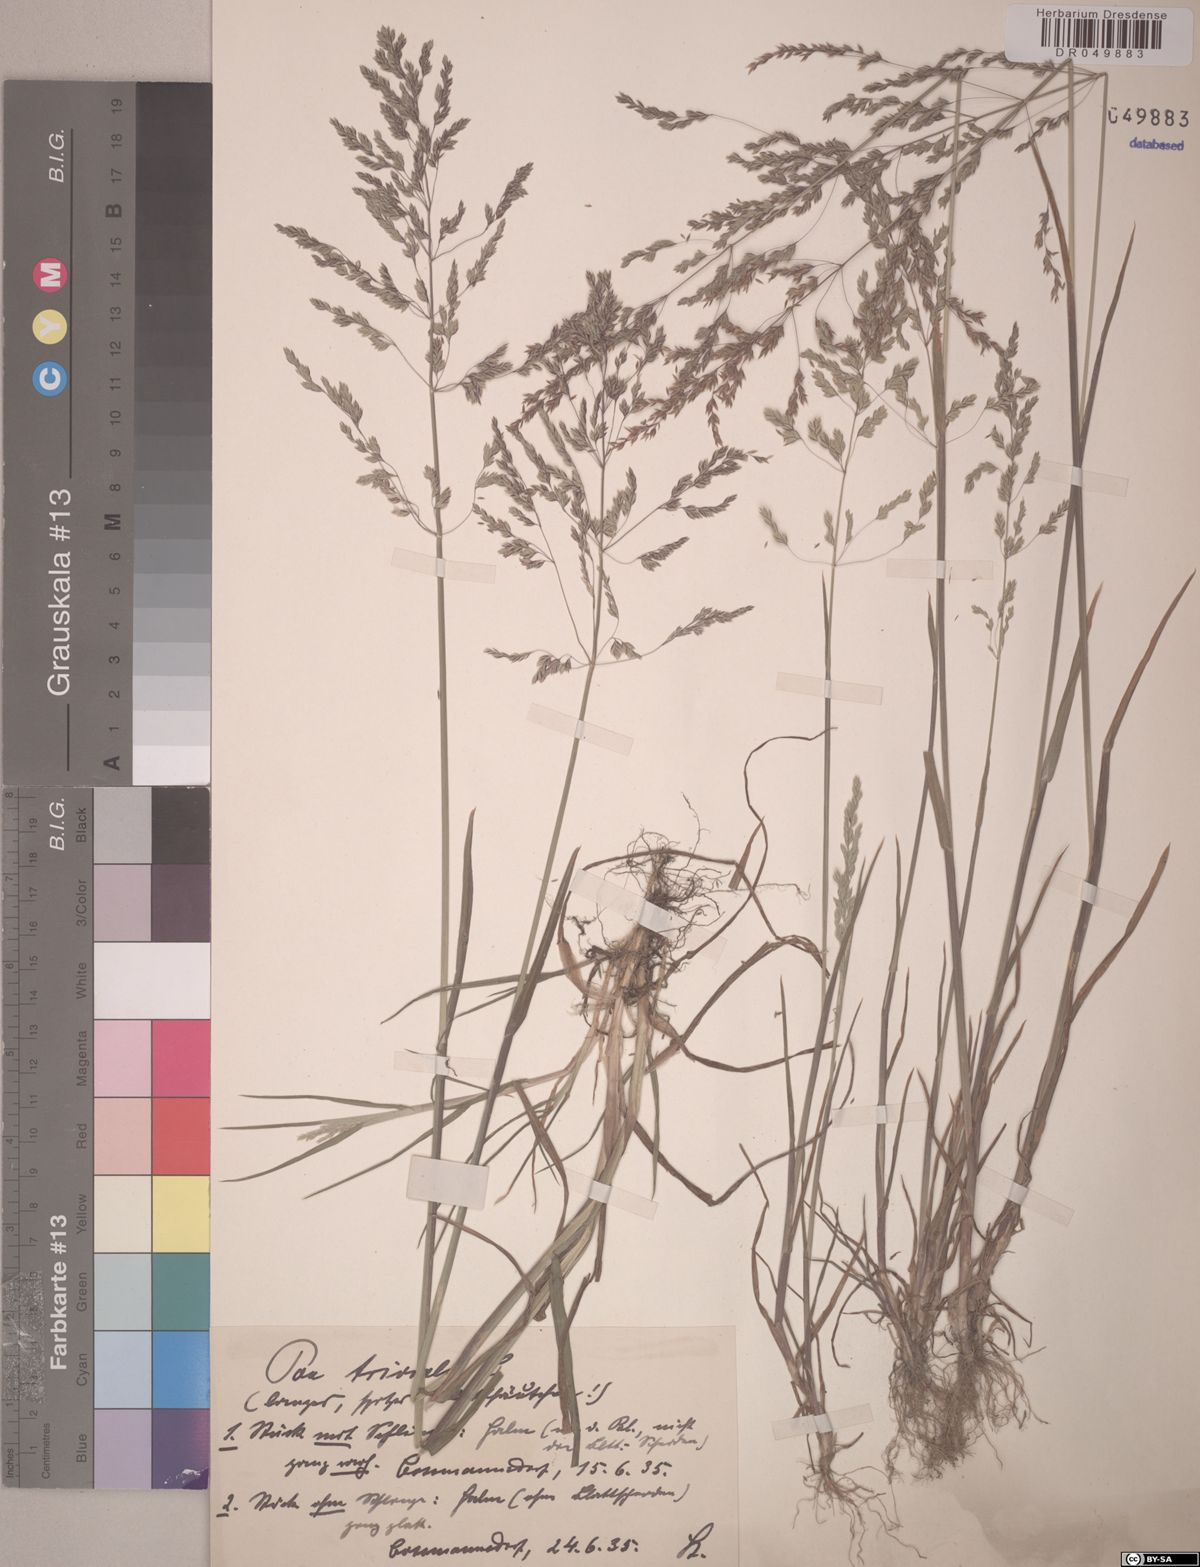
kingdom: Plantae
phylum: Tracheophyta
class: Liliopsida
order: Poales
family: Poaceae
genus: Poa
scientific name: Poa trivialis
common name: Rough bluegrass
